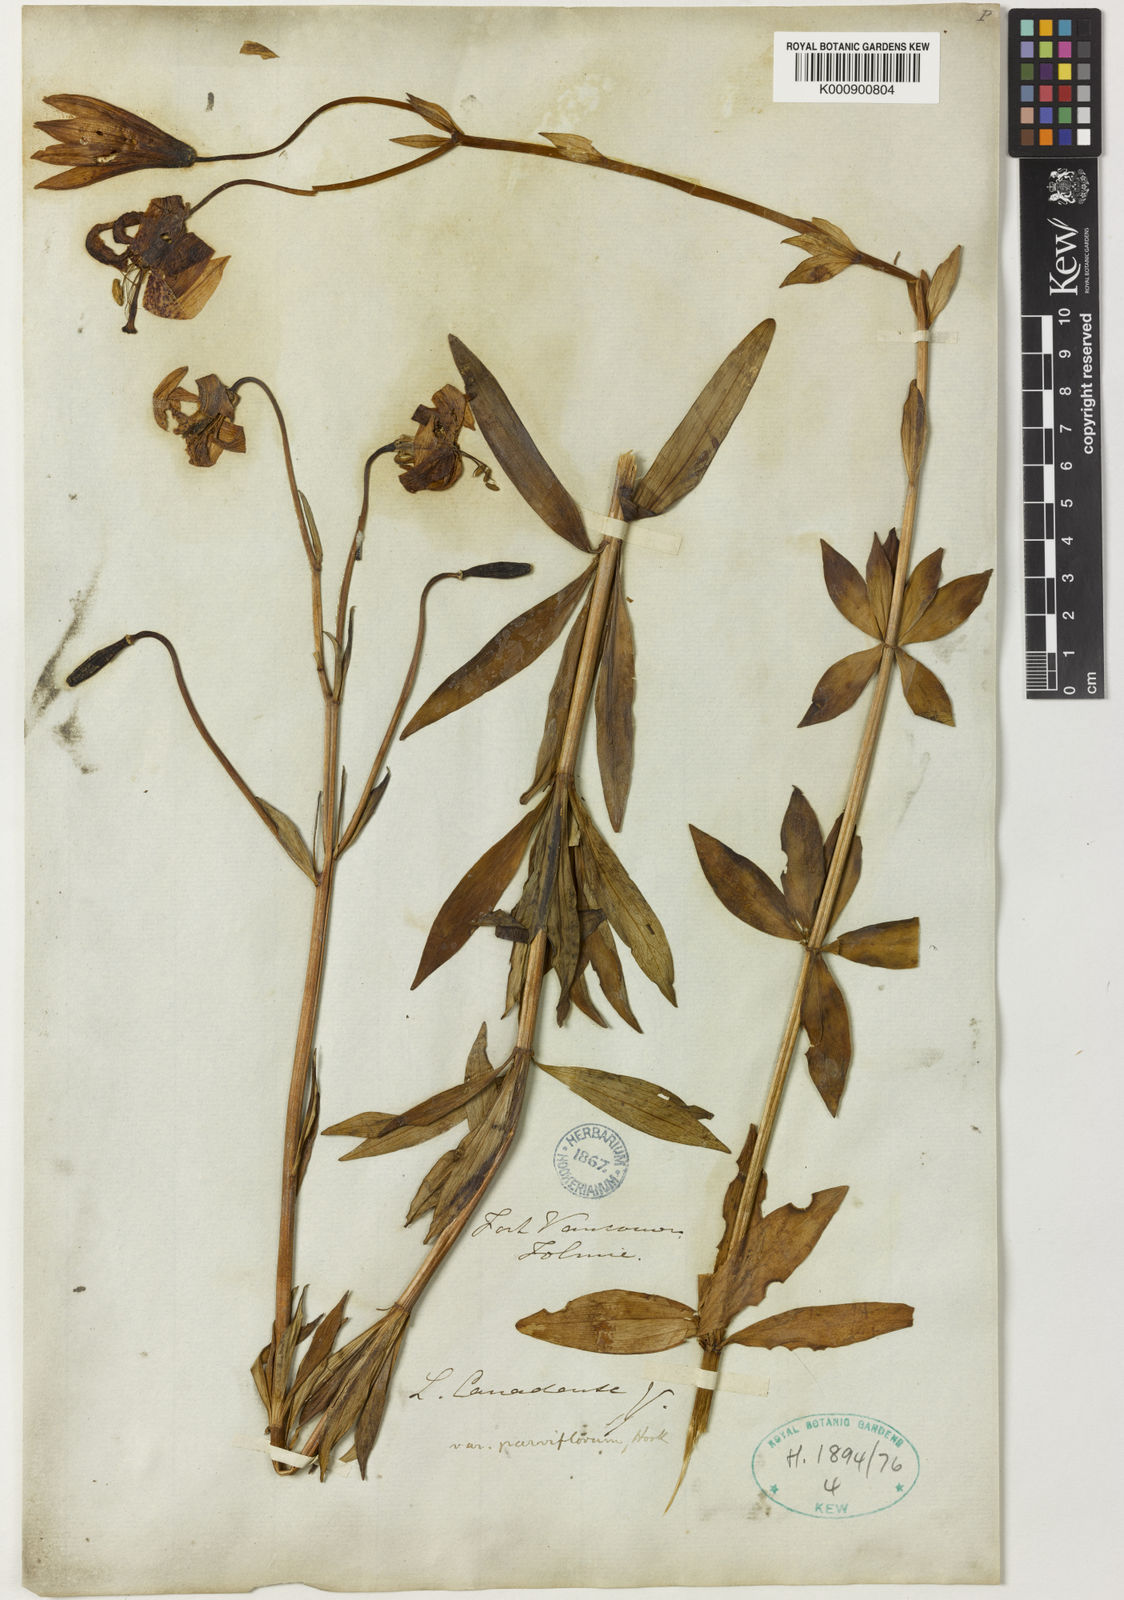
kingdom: Plantae
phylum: Tracheophyta
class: Liliopsida
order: Liliales
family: Liliaceae
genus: Lilium
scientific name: Lilium columbianum
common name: Columbia lily
